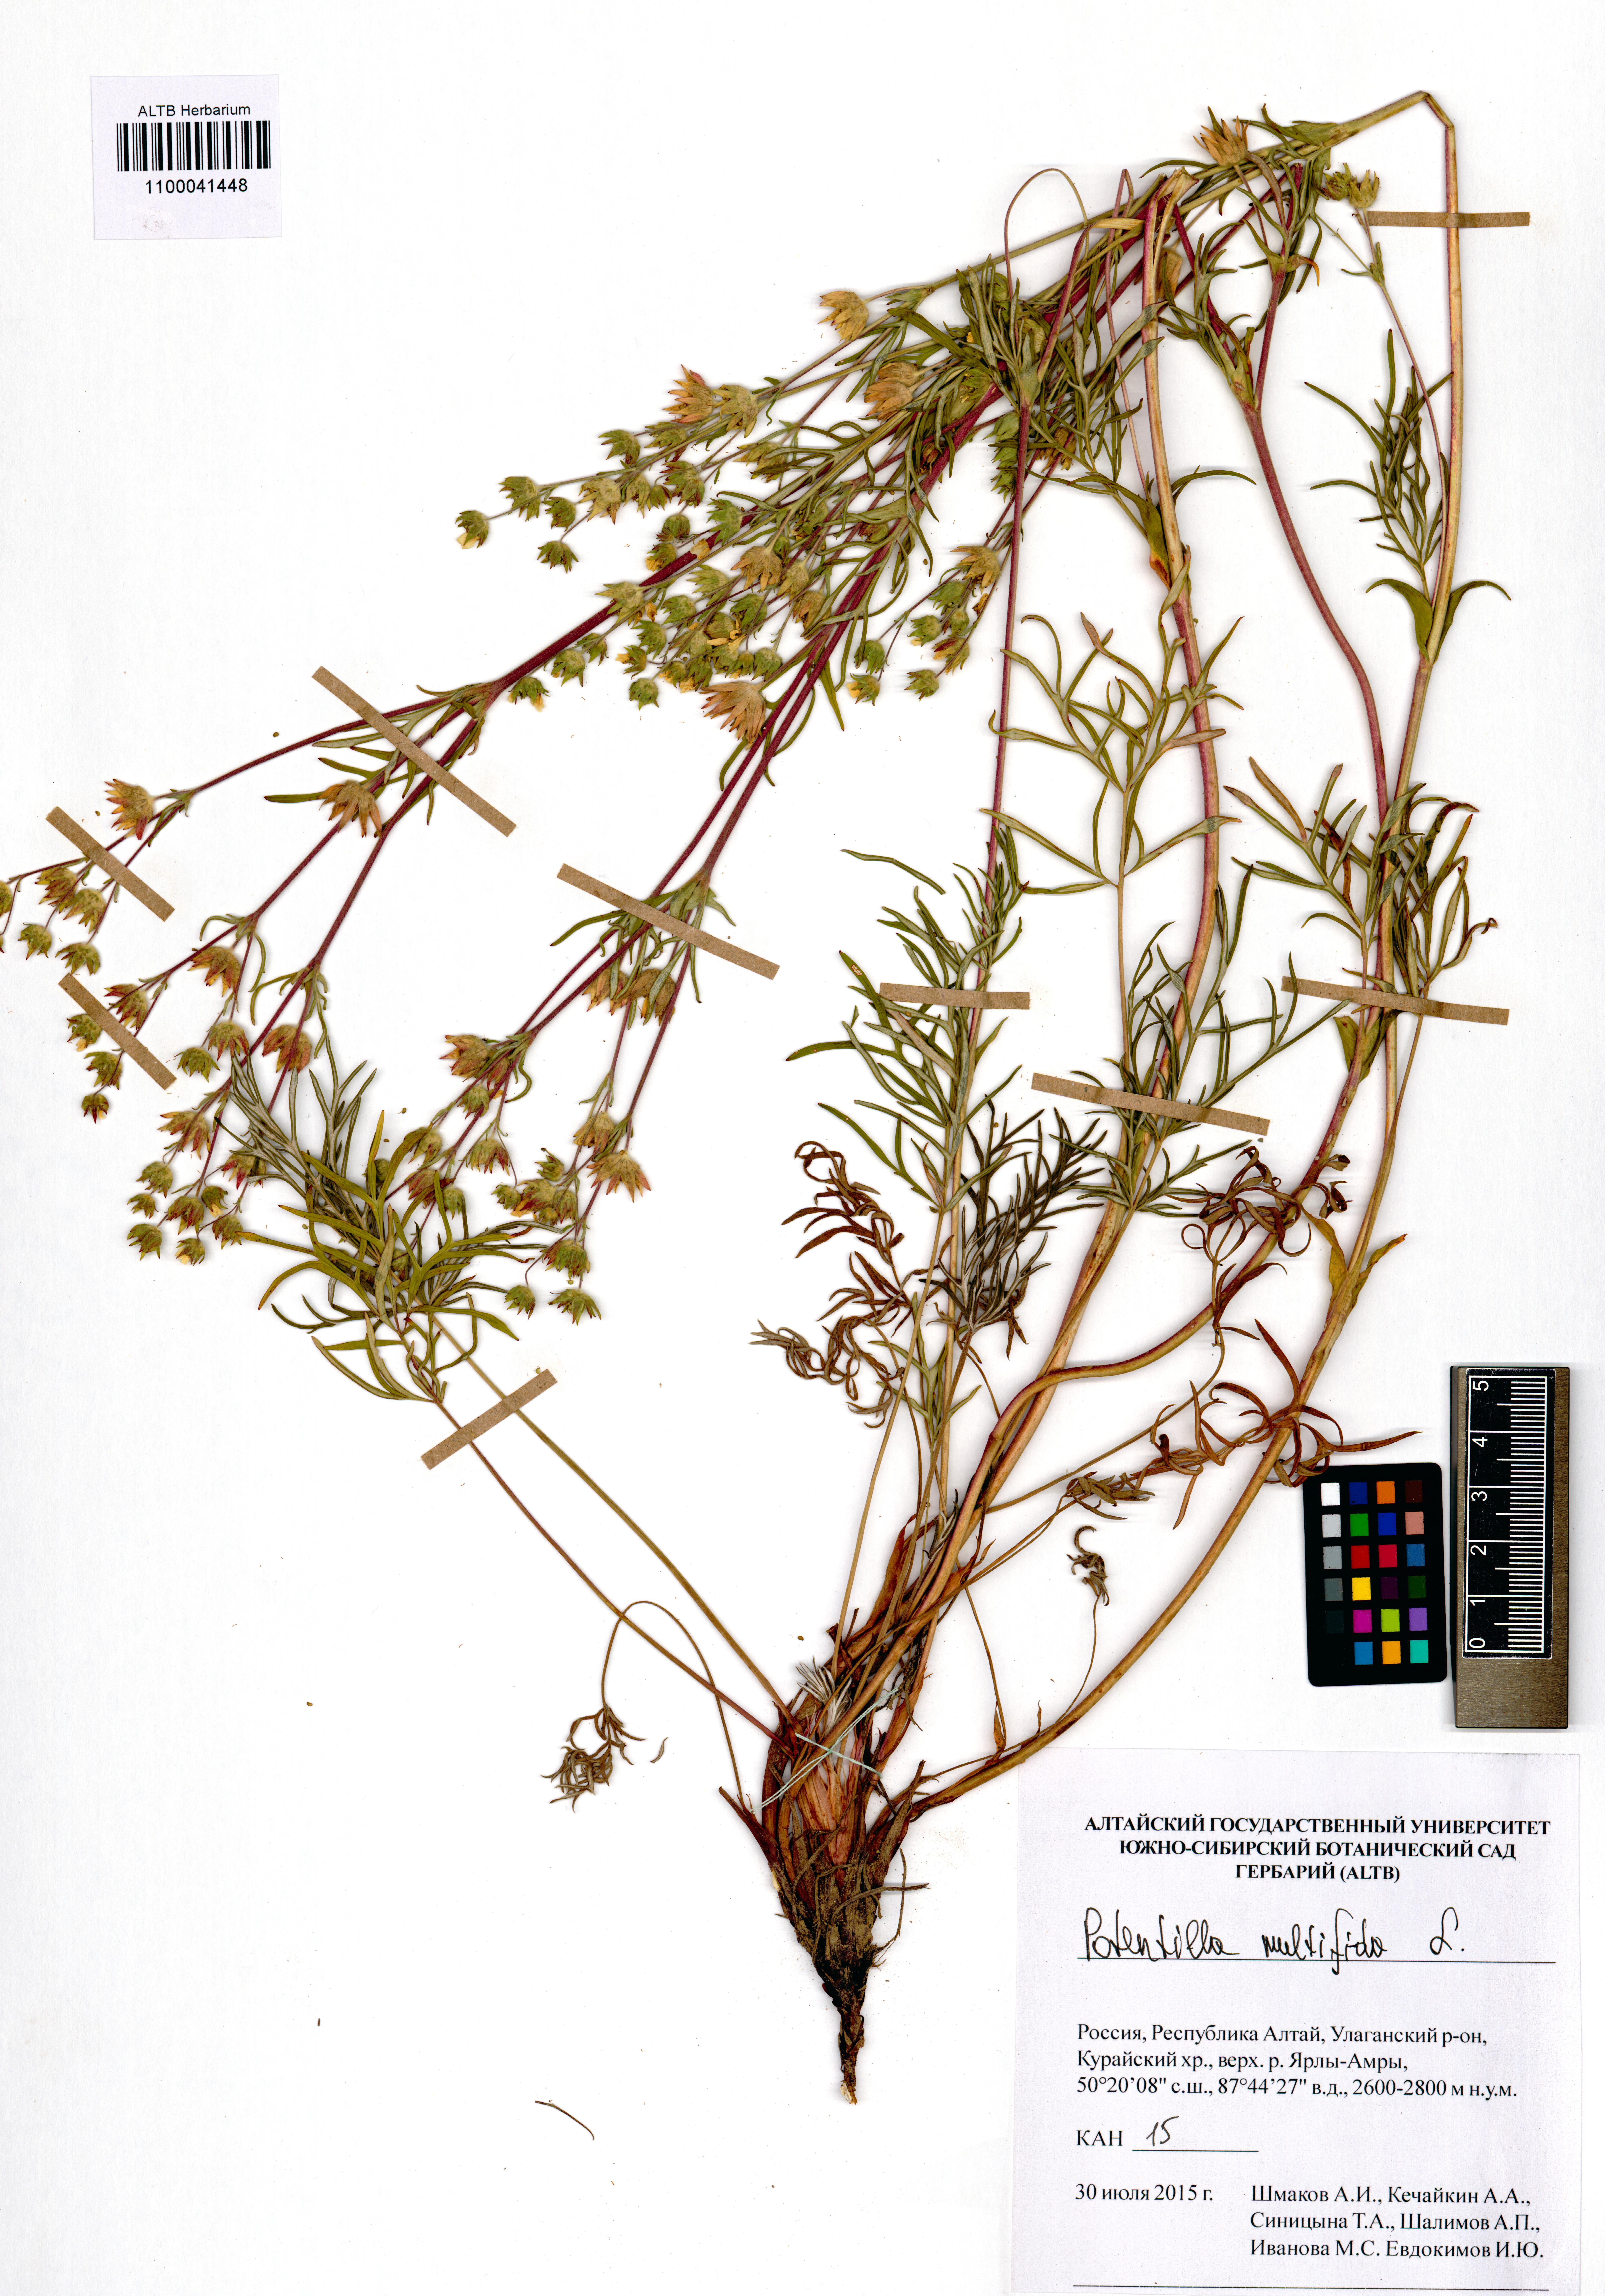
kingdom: Plantae
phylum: Tracheophyta
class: Magnoliopsida
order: Rosales
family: Rosaceae
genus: Potentilla
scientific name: Potentilla multifida
